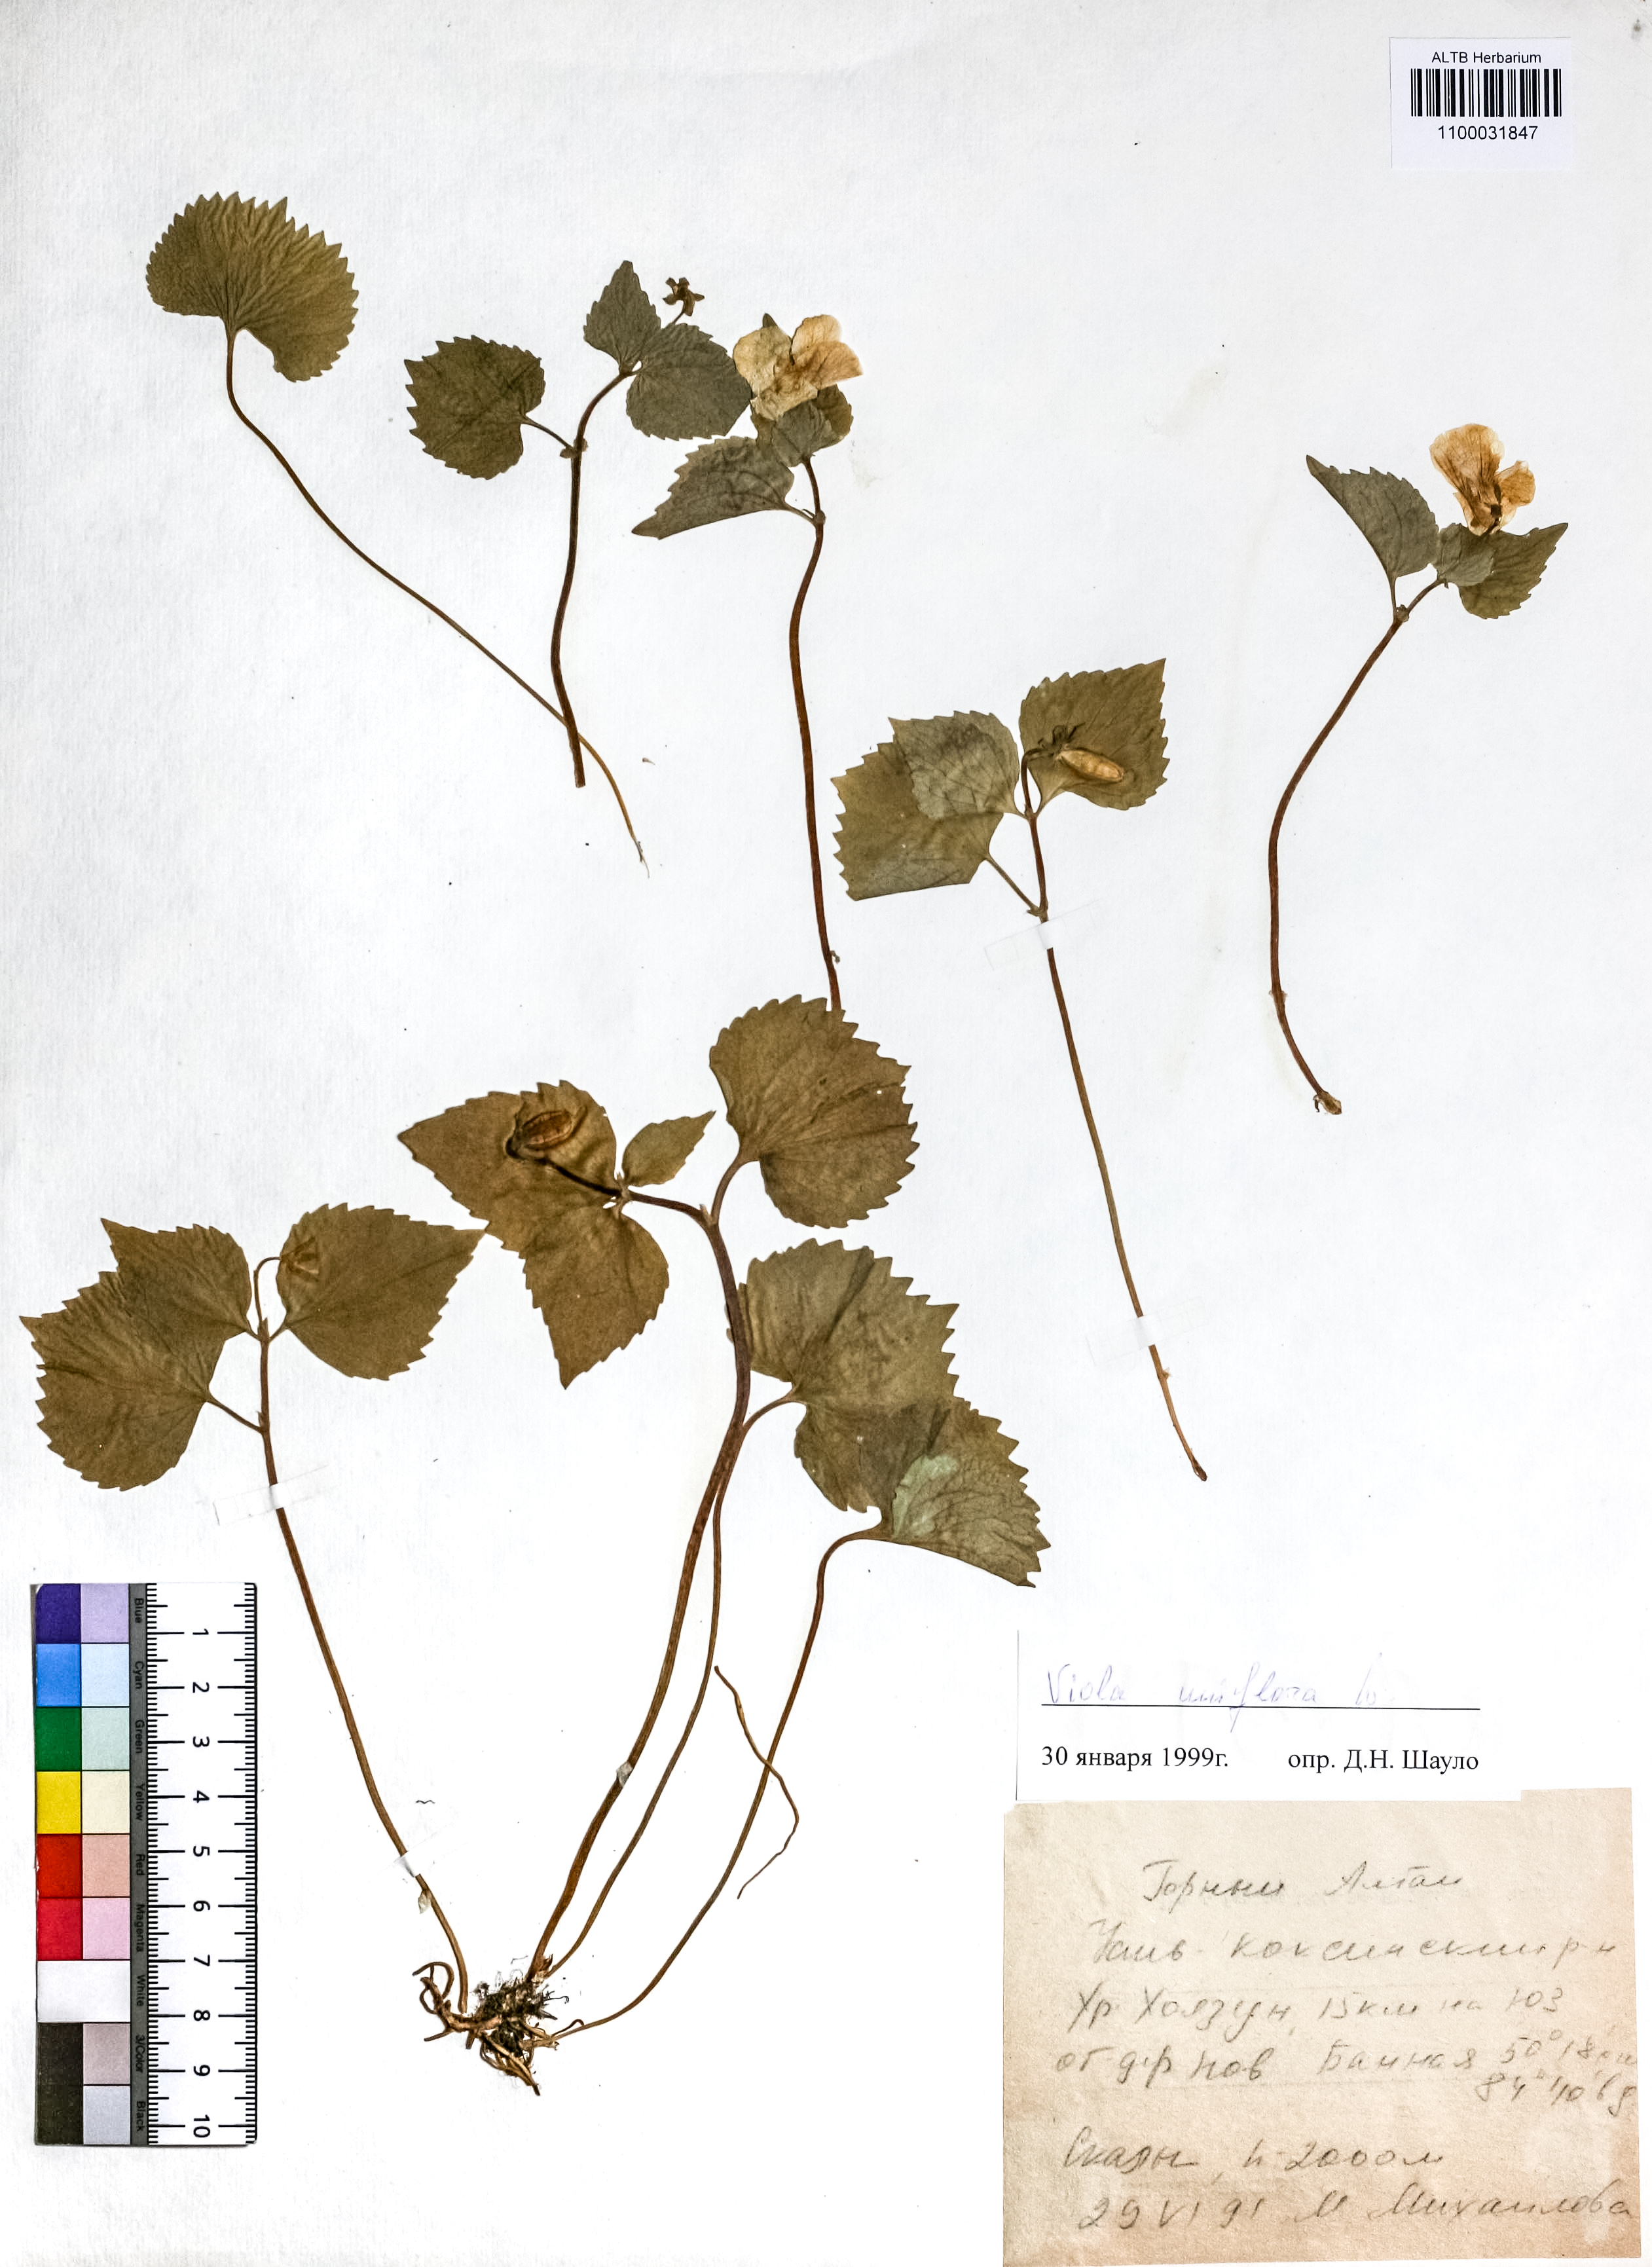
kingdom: Plantae
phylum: Tracheophyta
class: Magnoliopsida
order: Malpighiales
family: Violaceae
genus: Viola
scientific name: Viola uniflora
